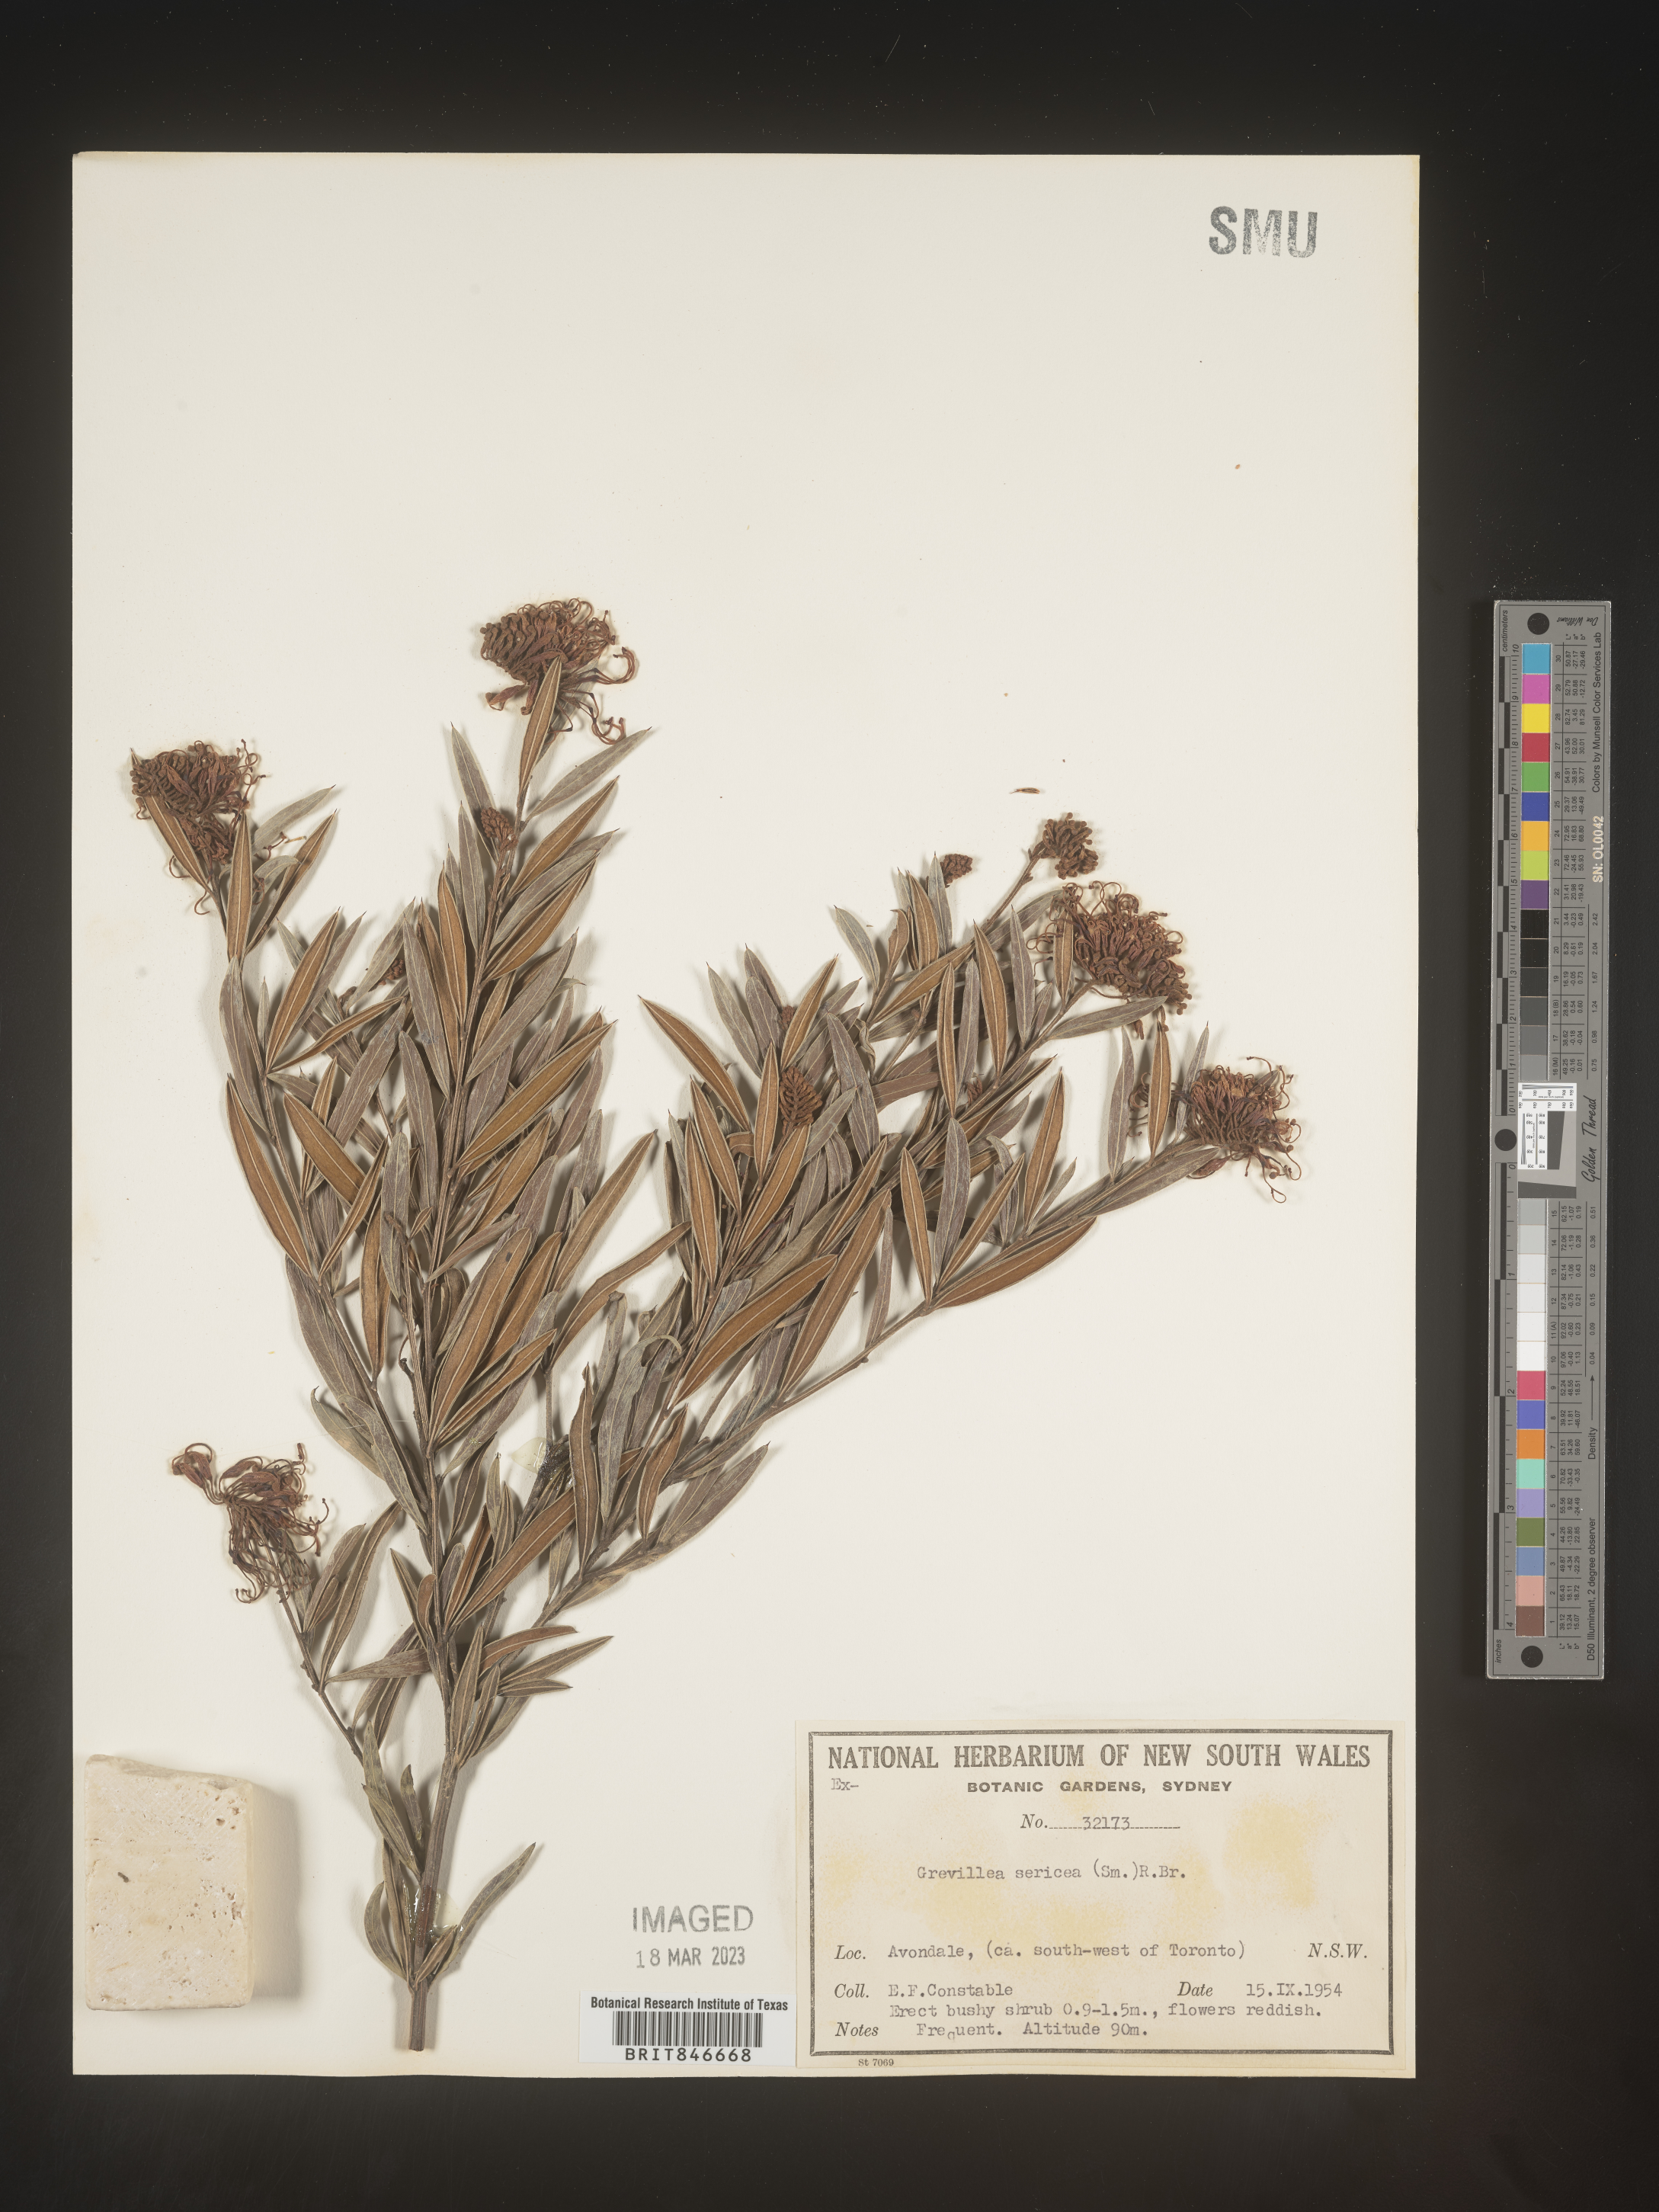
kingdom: Plantae
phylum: Tracheophyta
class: Magnoliopsida
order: Proteales
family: Proteaceae
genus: Grevillea
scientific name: Grevillea
